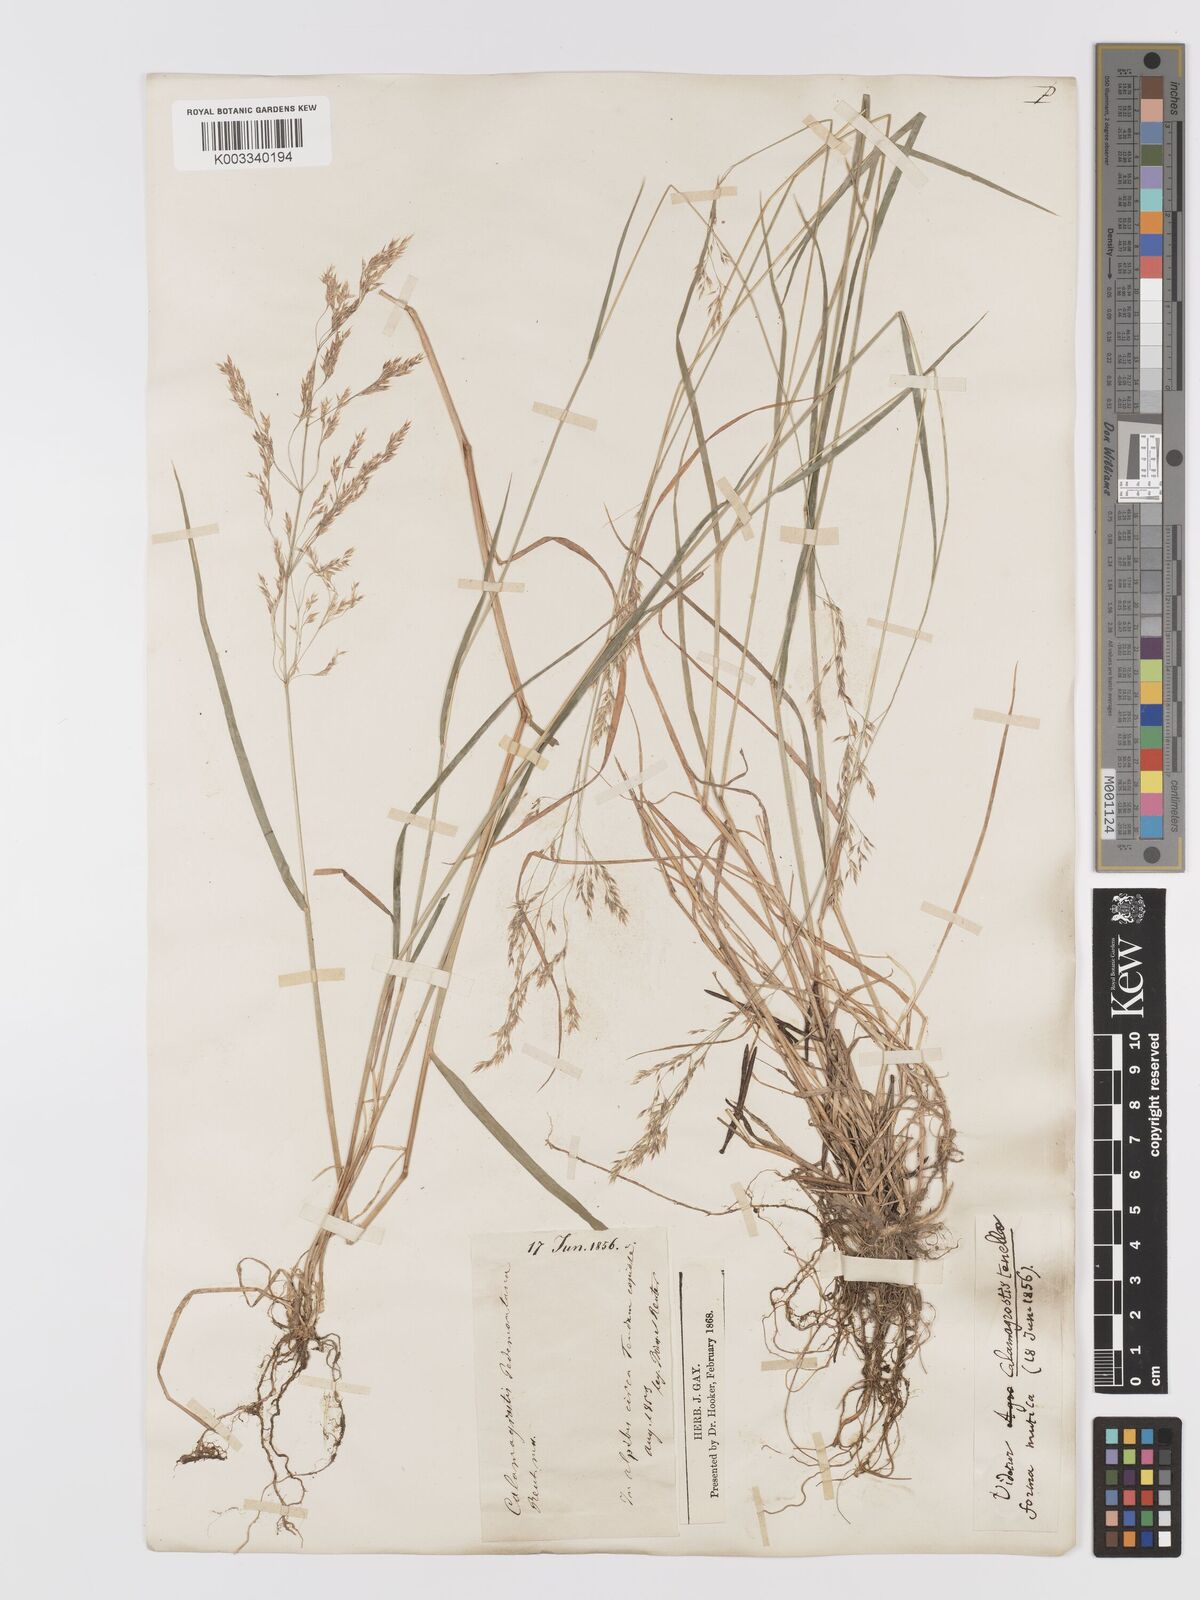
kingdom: Plantae
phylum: Tracheophyta
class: Liliopsida
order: Poales
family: Poaceae
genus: Agrostis
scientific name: Agrostis schraderiana
